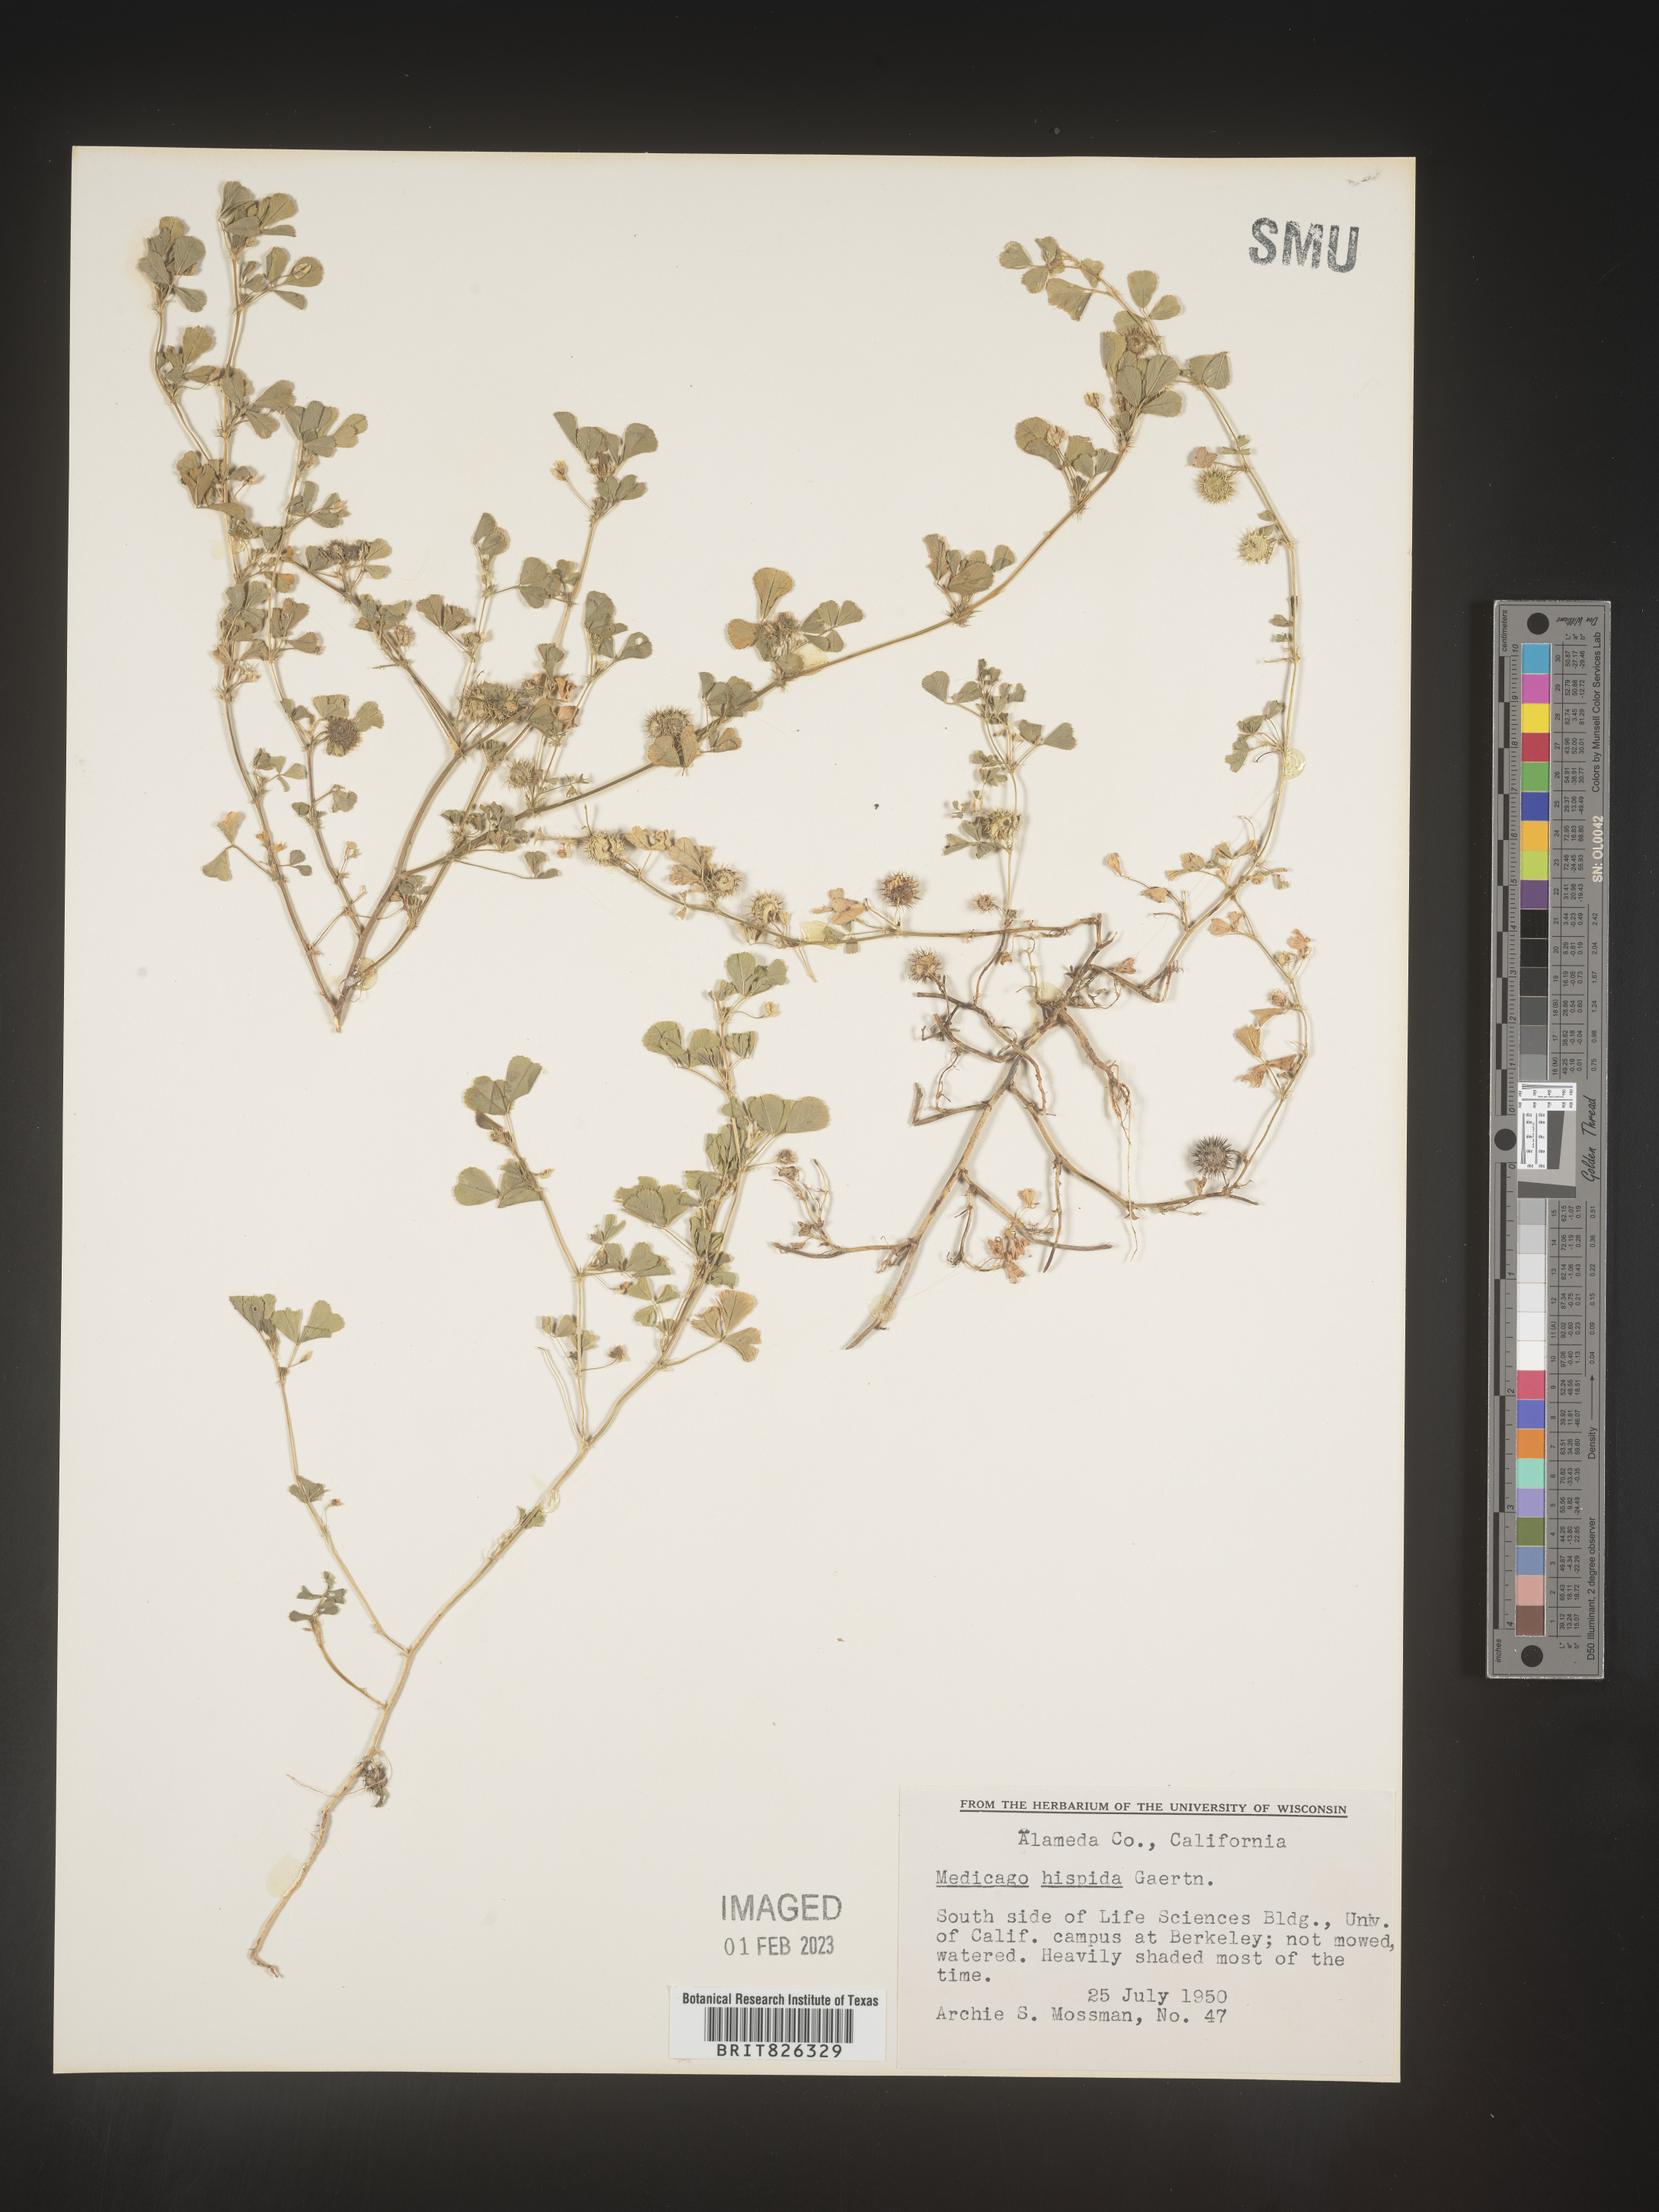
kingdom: Plantae
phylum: Tracheophyta
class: Magnoliopsida
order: Fabales
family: Fabaceae
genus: Medicago
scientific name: Medicago polymorpha
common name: Burclover
